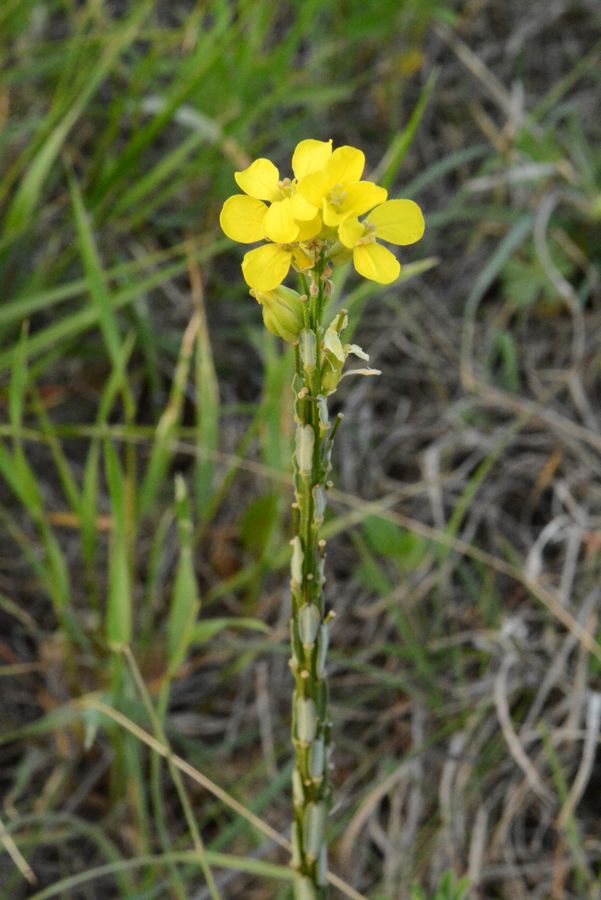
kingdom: Plantae
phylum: Tracheophyta
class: Magnoliopsida
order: Brassicales
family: Brassicaceae
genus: Erysimum
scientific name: Erysimum repandum
